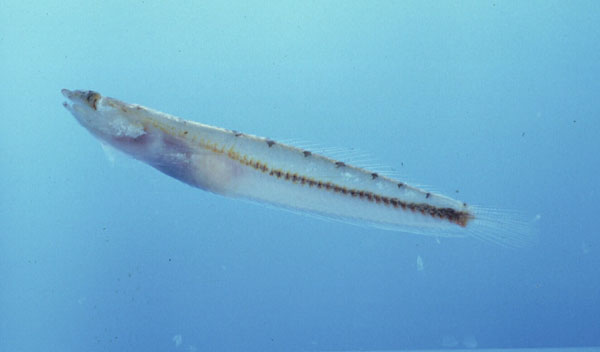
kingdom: Animalia
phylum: Chordata
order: Perciformes
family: Creediidae
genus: Limnichthys
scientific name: Limnichthys nitidus
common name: Donaldson's sandburrower
